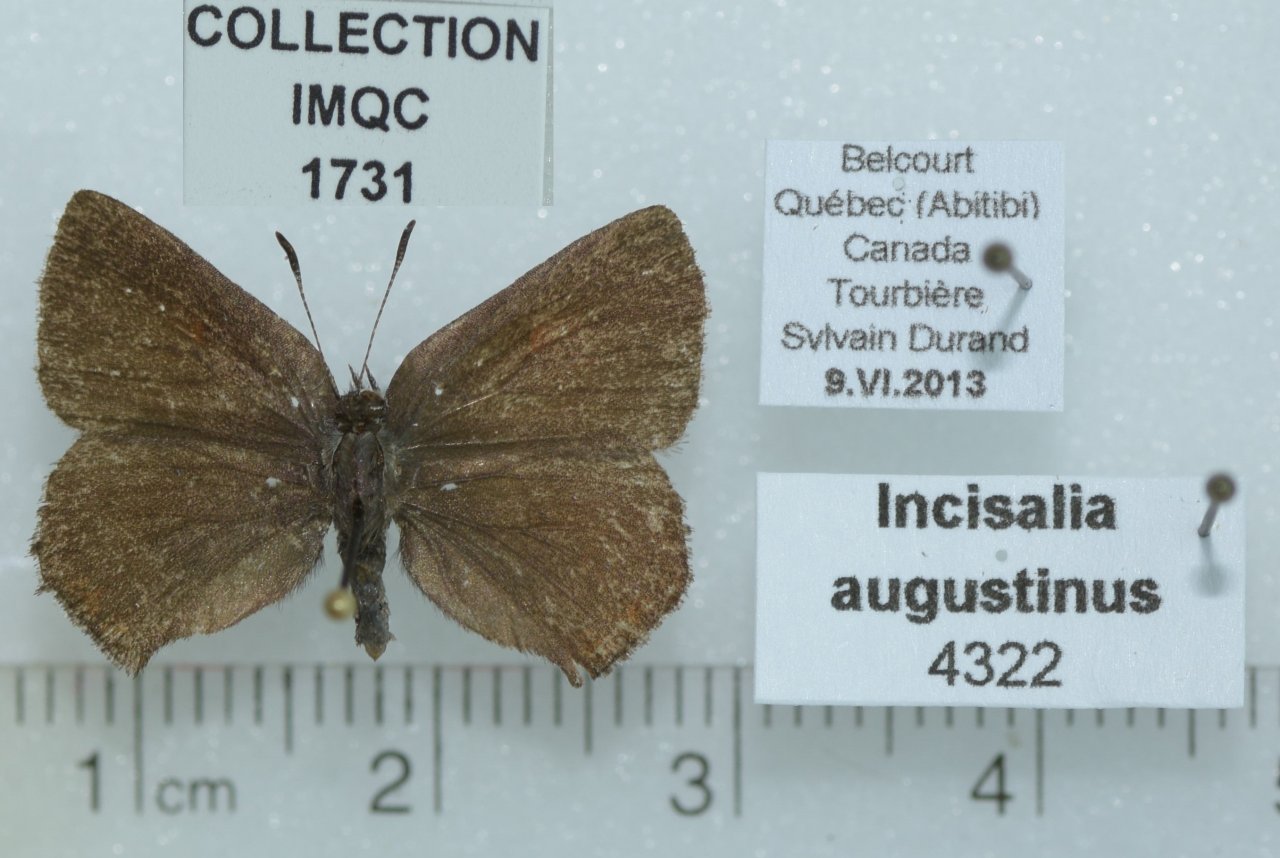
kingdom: Animalia
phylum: Arthropoda
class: Insecta
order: Lepidoptera
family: Lycaenidae
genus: Incisalia
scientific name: Incisalia irioides
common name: Brown Elfin
